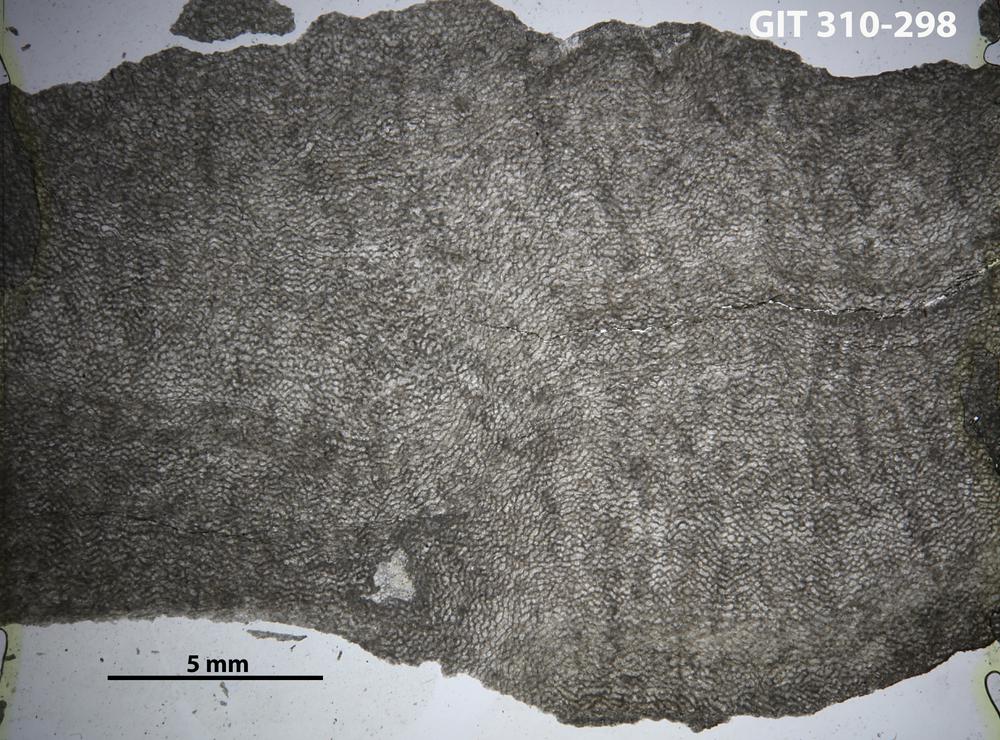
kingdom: Animalia
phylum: Porifera
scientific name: Porifera
